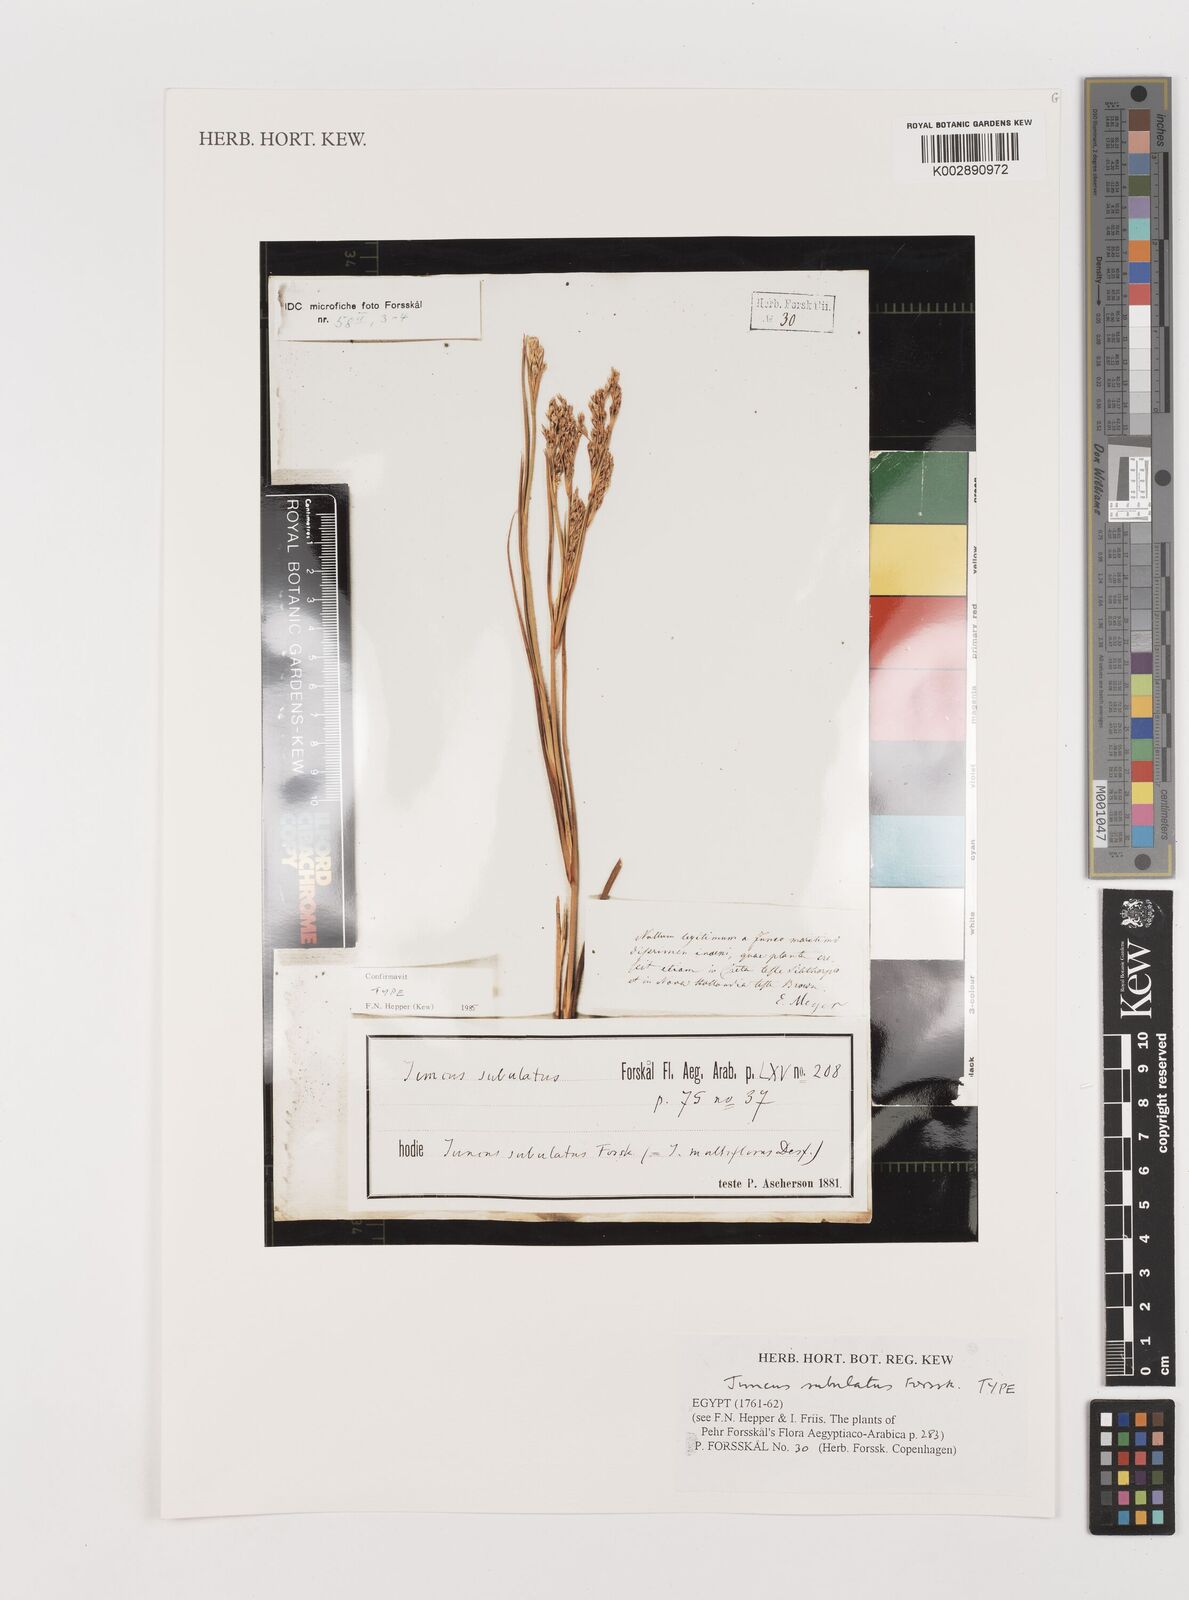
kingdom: Plantae
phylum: Tracheophyta
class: Liliopsida
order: Poales
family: Juncaceae
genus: Juncus
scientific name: Juncus subulatus
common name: Somerset rush
